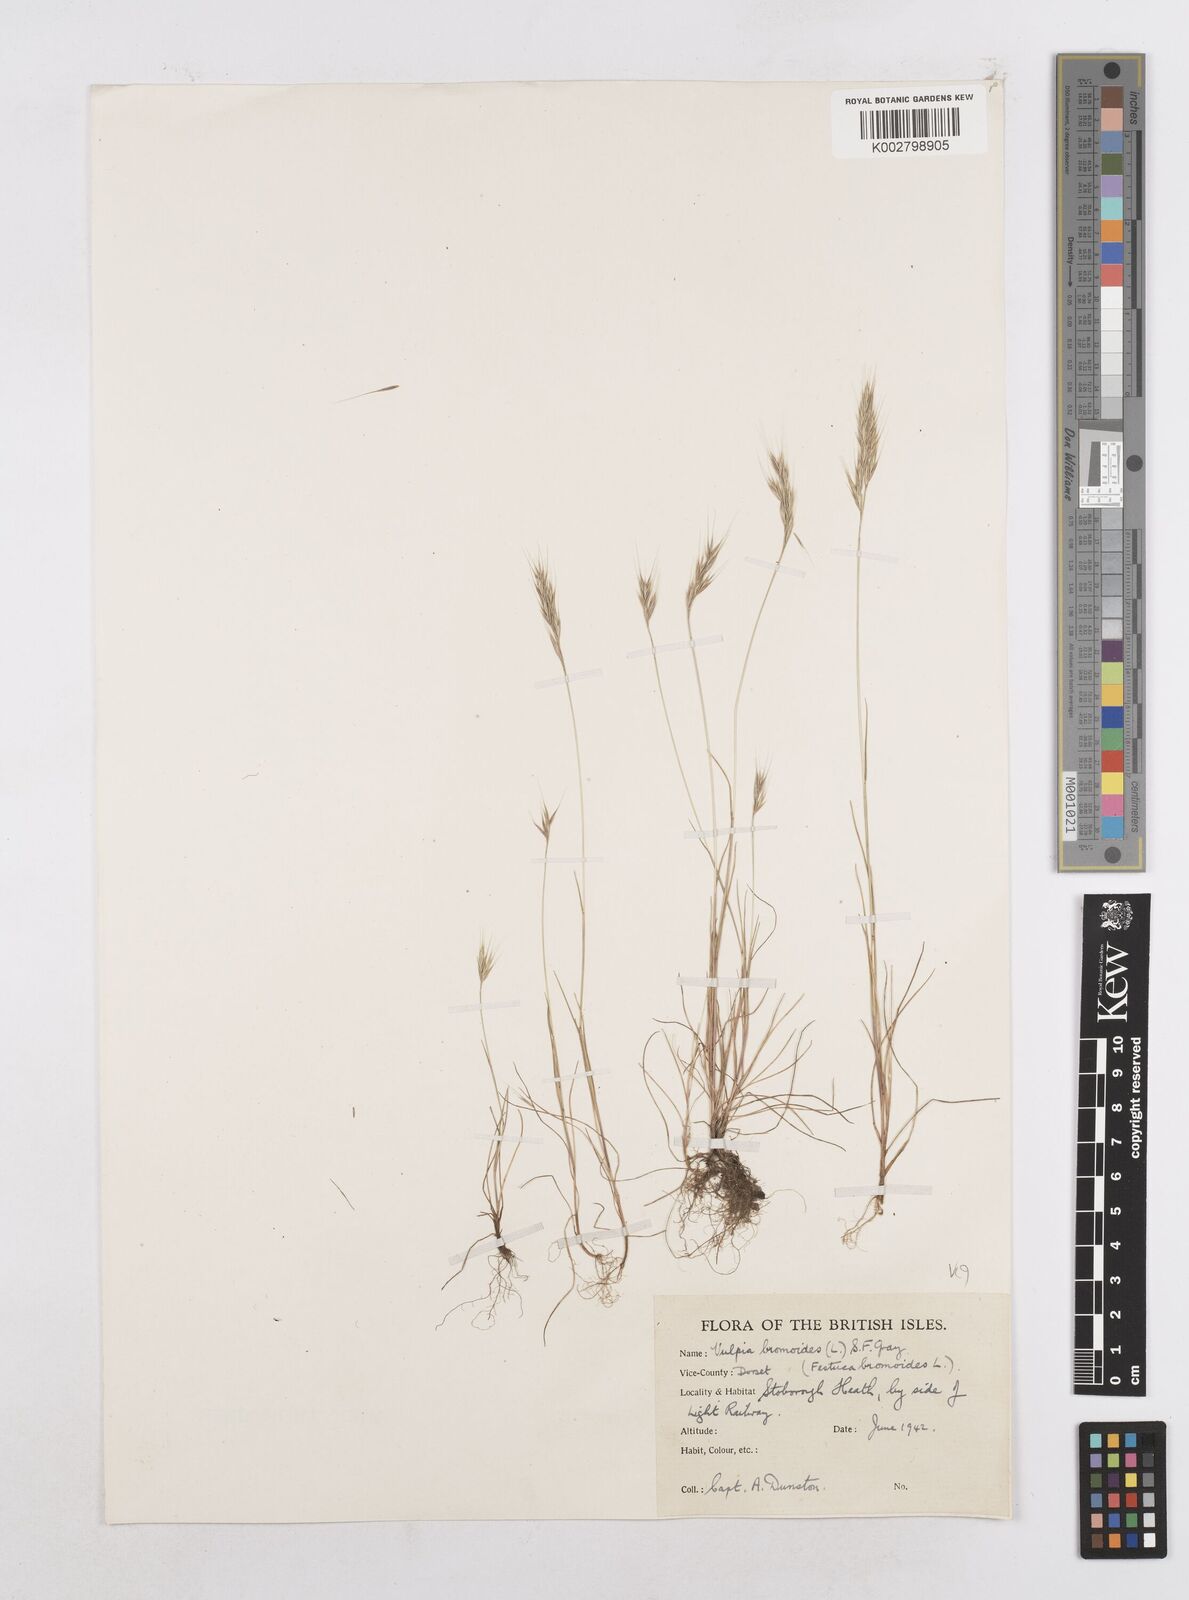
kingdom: Plantae
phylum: Tracheophyta
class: Liliopsida
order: Poales
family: Poaceae
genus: Festuca
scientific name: Festuca bromoides
